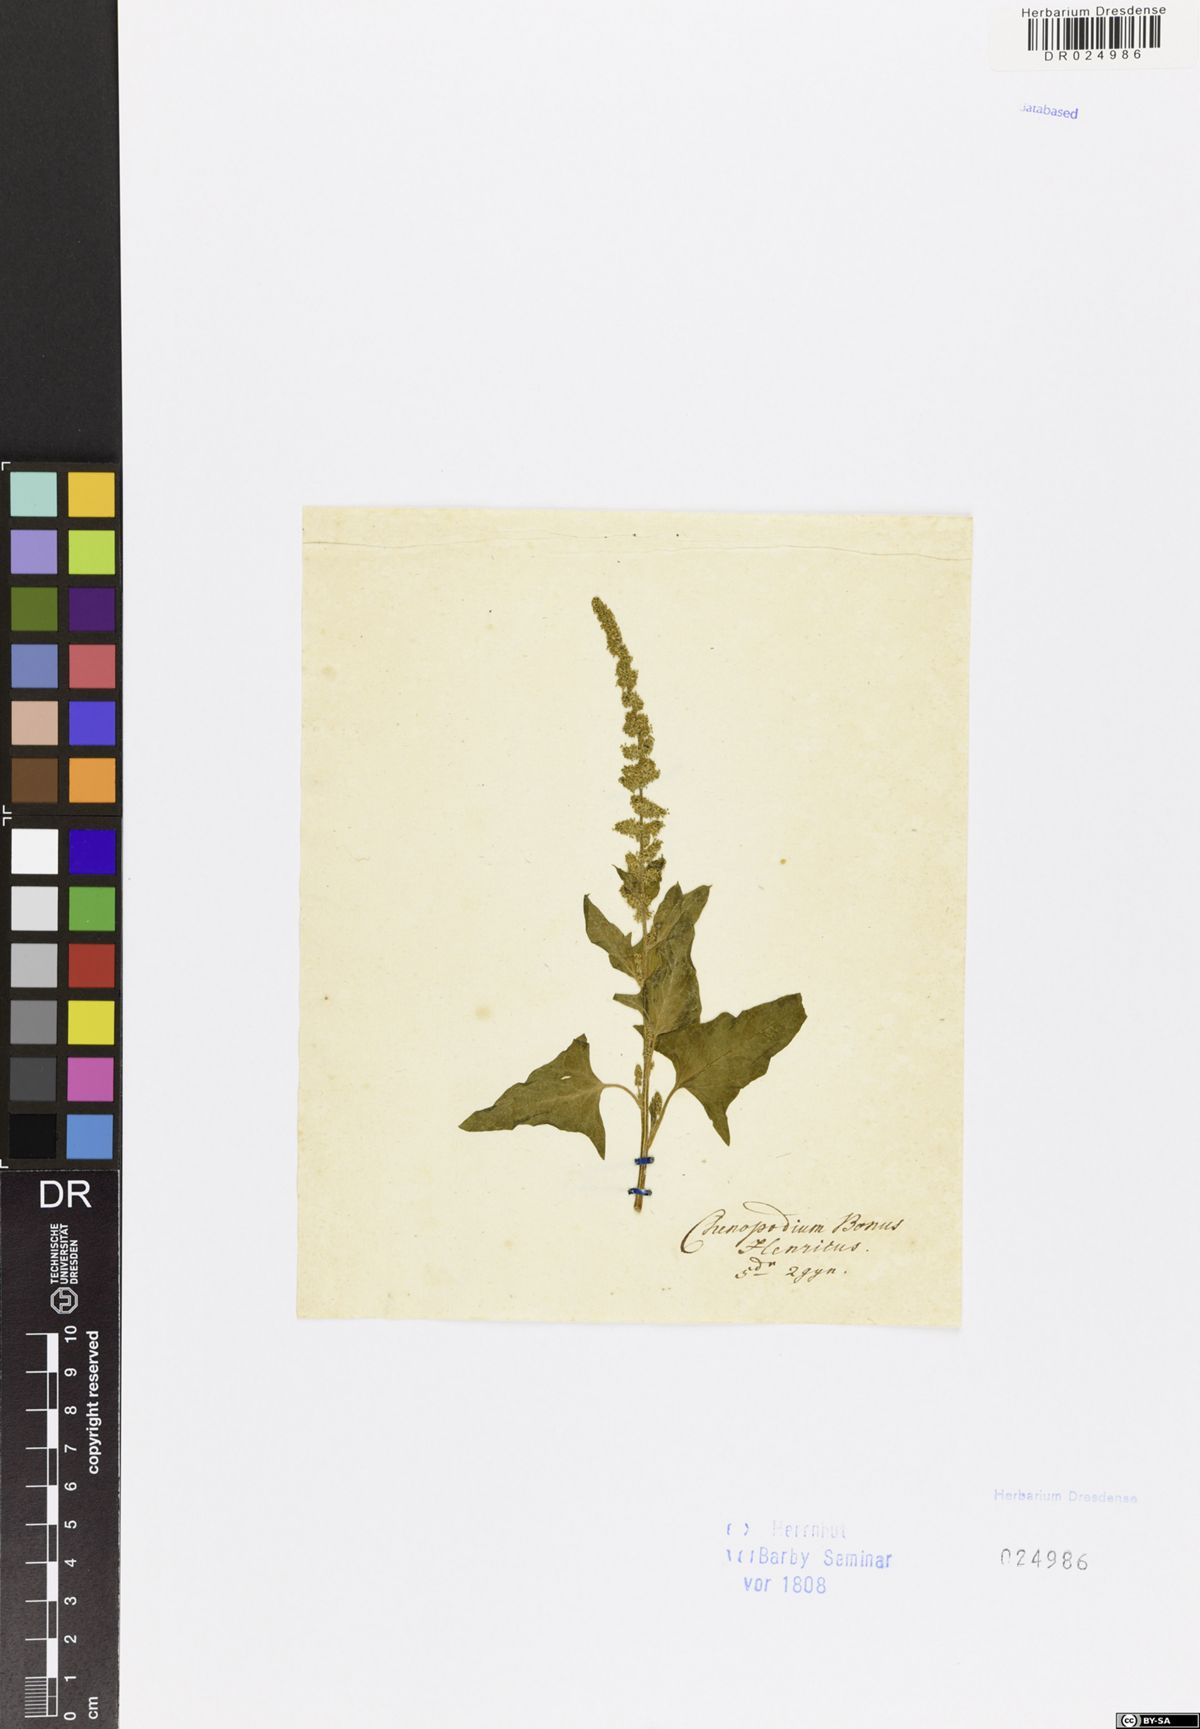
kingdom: Plantae
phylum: Tracheophyta
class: Magnoliopsida
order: Caryophyllales
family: Amaranthaceae
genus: Blitum
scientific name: Blitum bonus-henricus
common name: Good king henry
